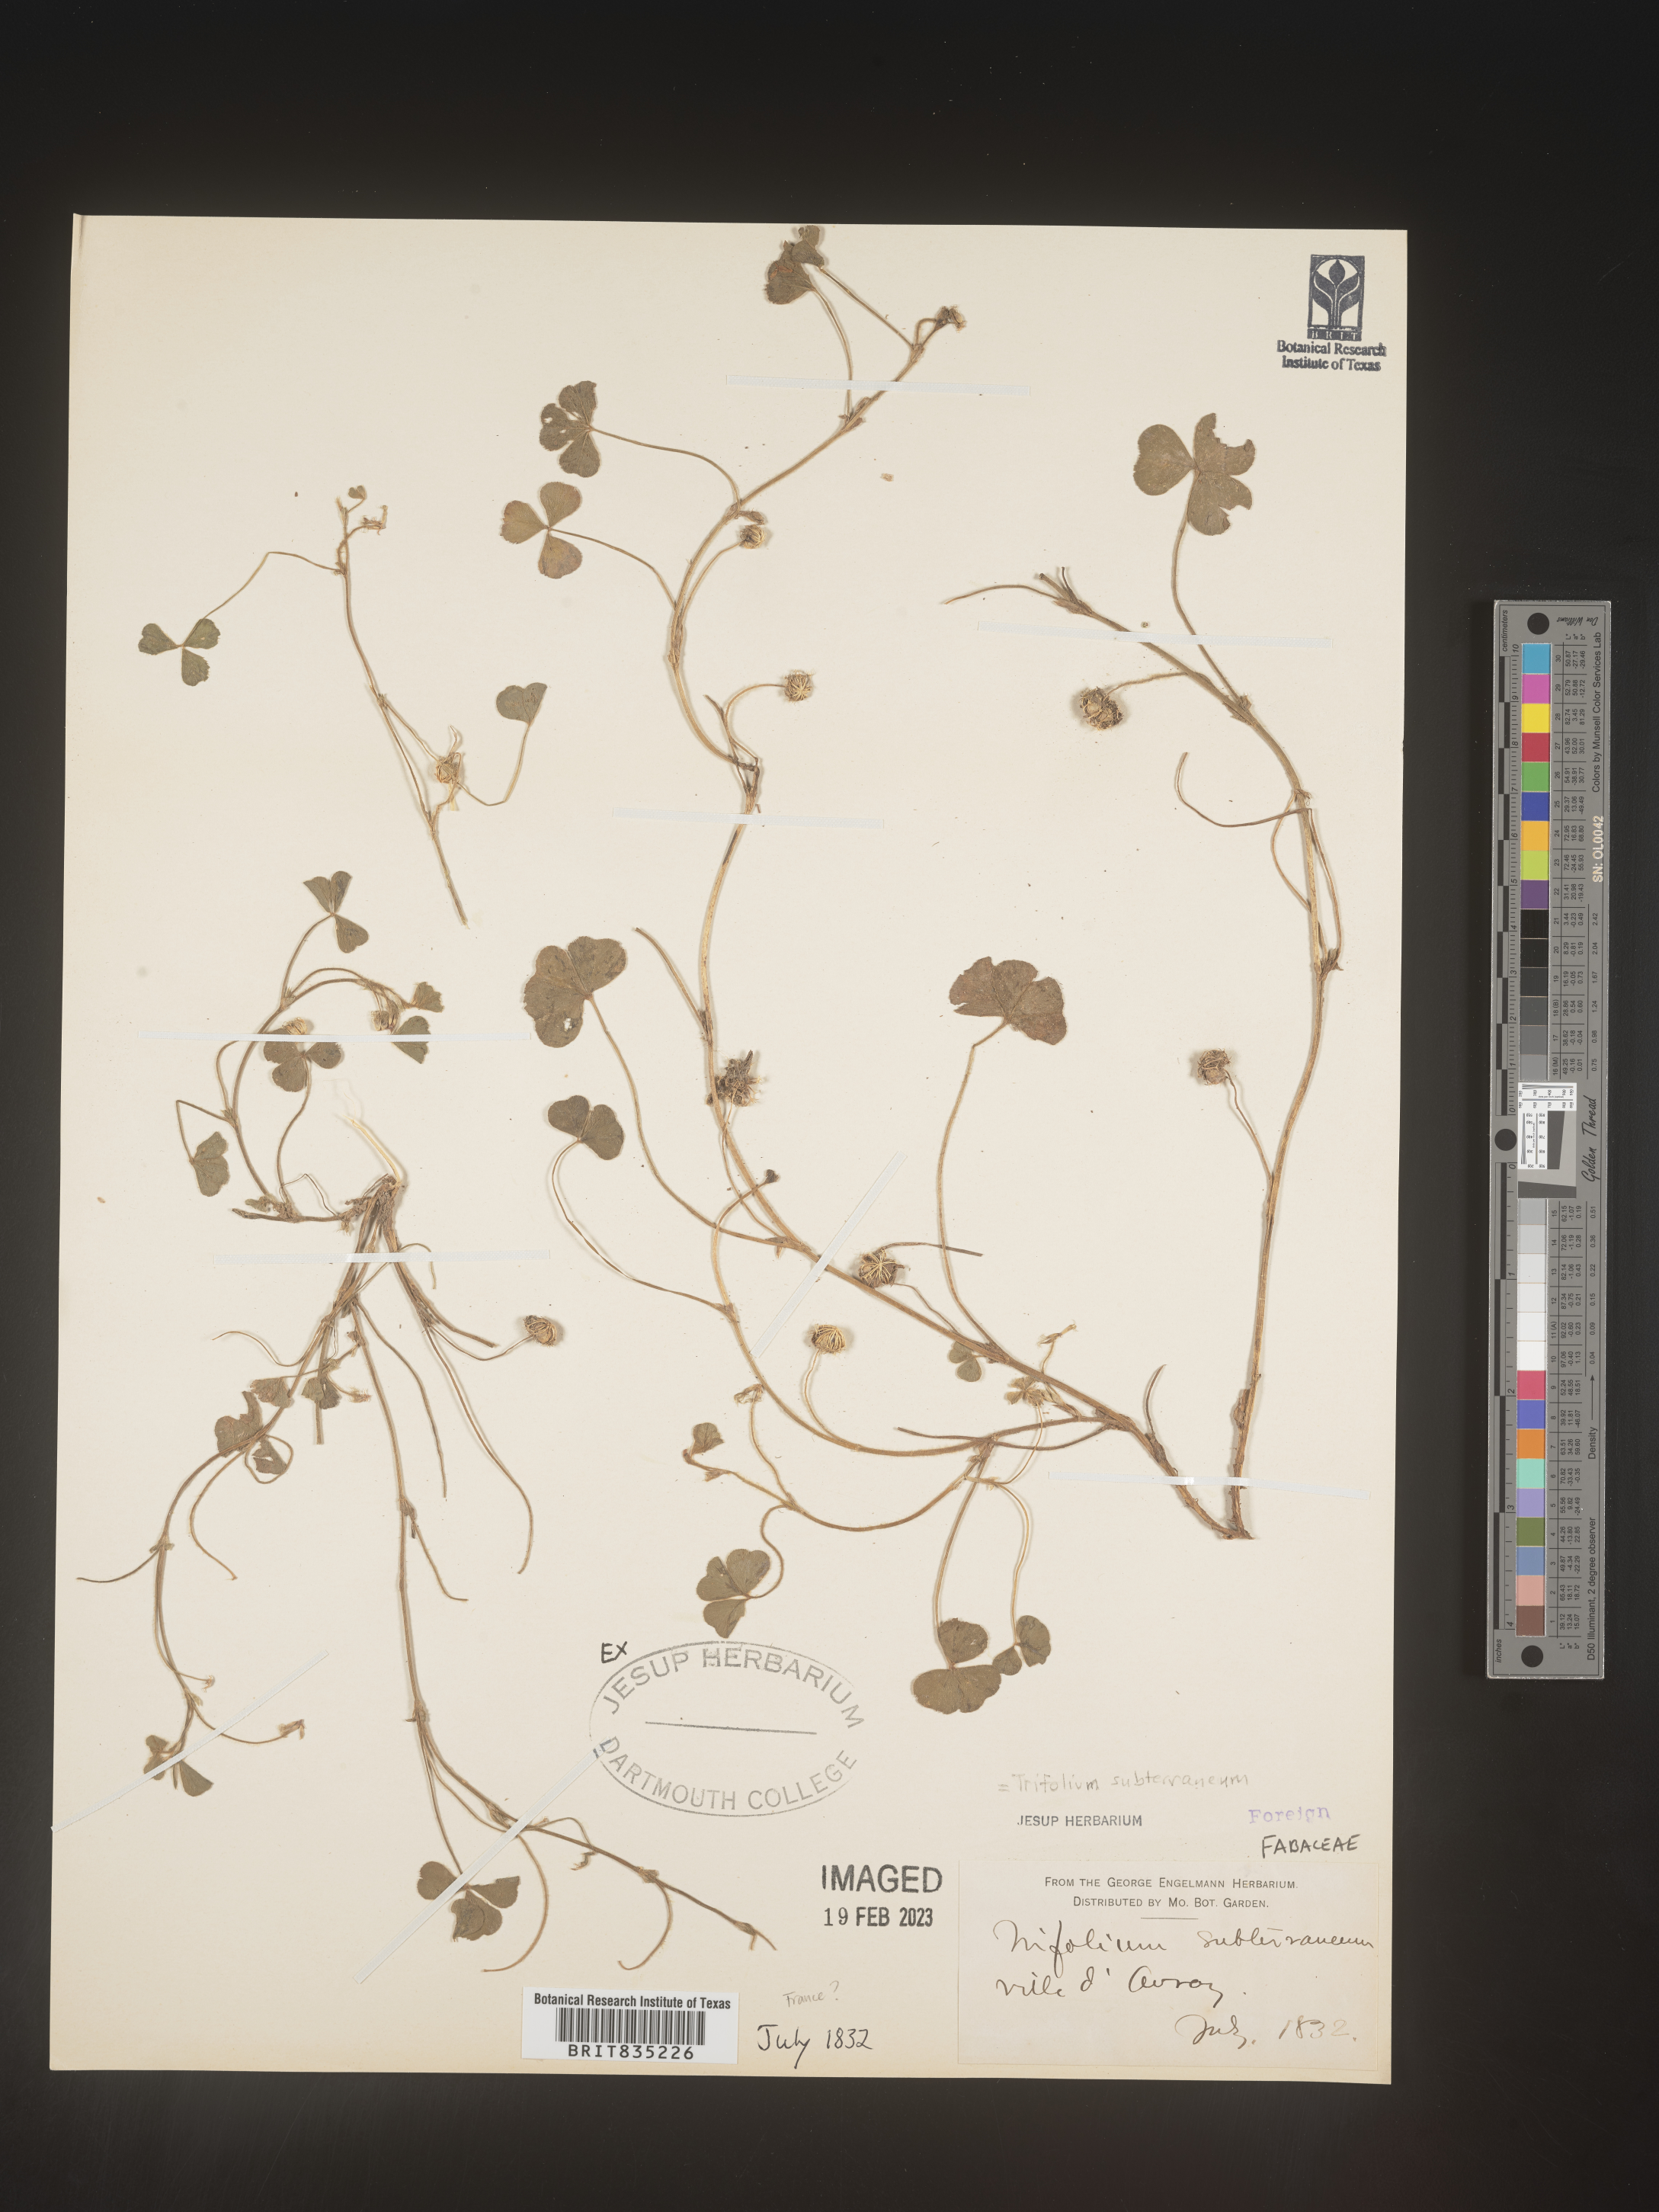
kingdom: Plantae
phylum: Tracheophyta
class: Magnoliopsida
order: Fabales
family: Fabaceae
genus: Trifolium
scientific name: Trifolium
